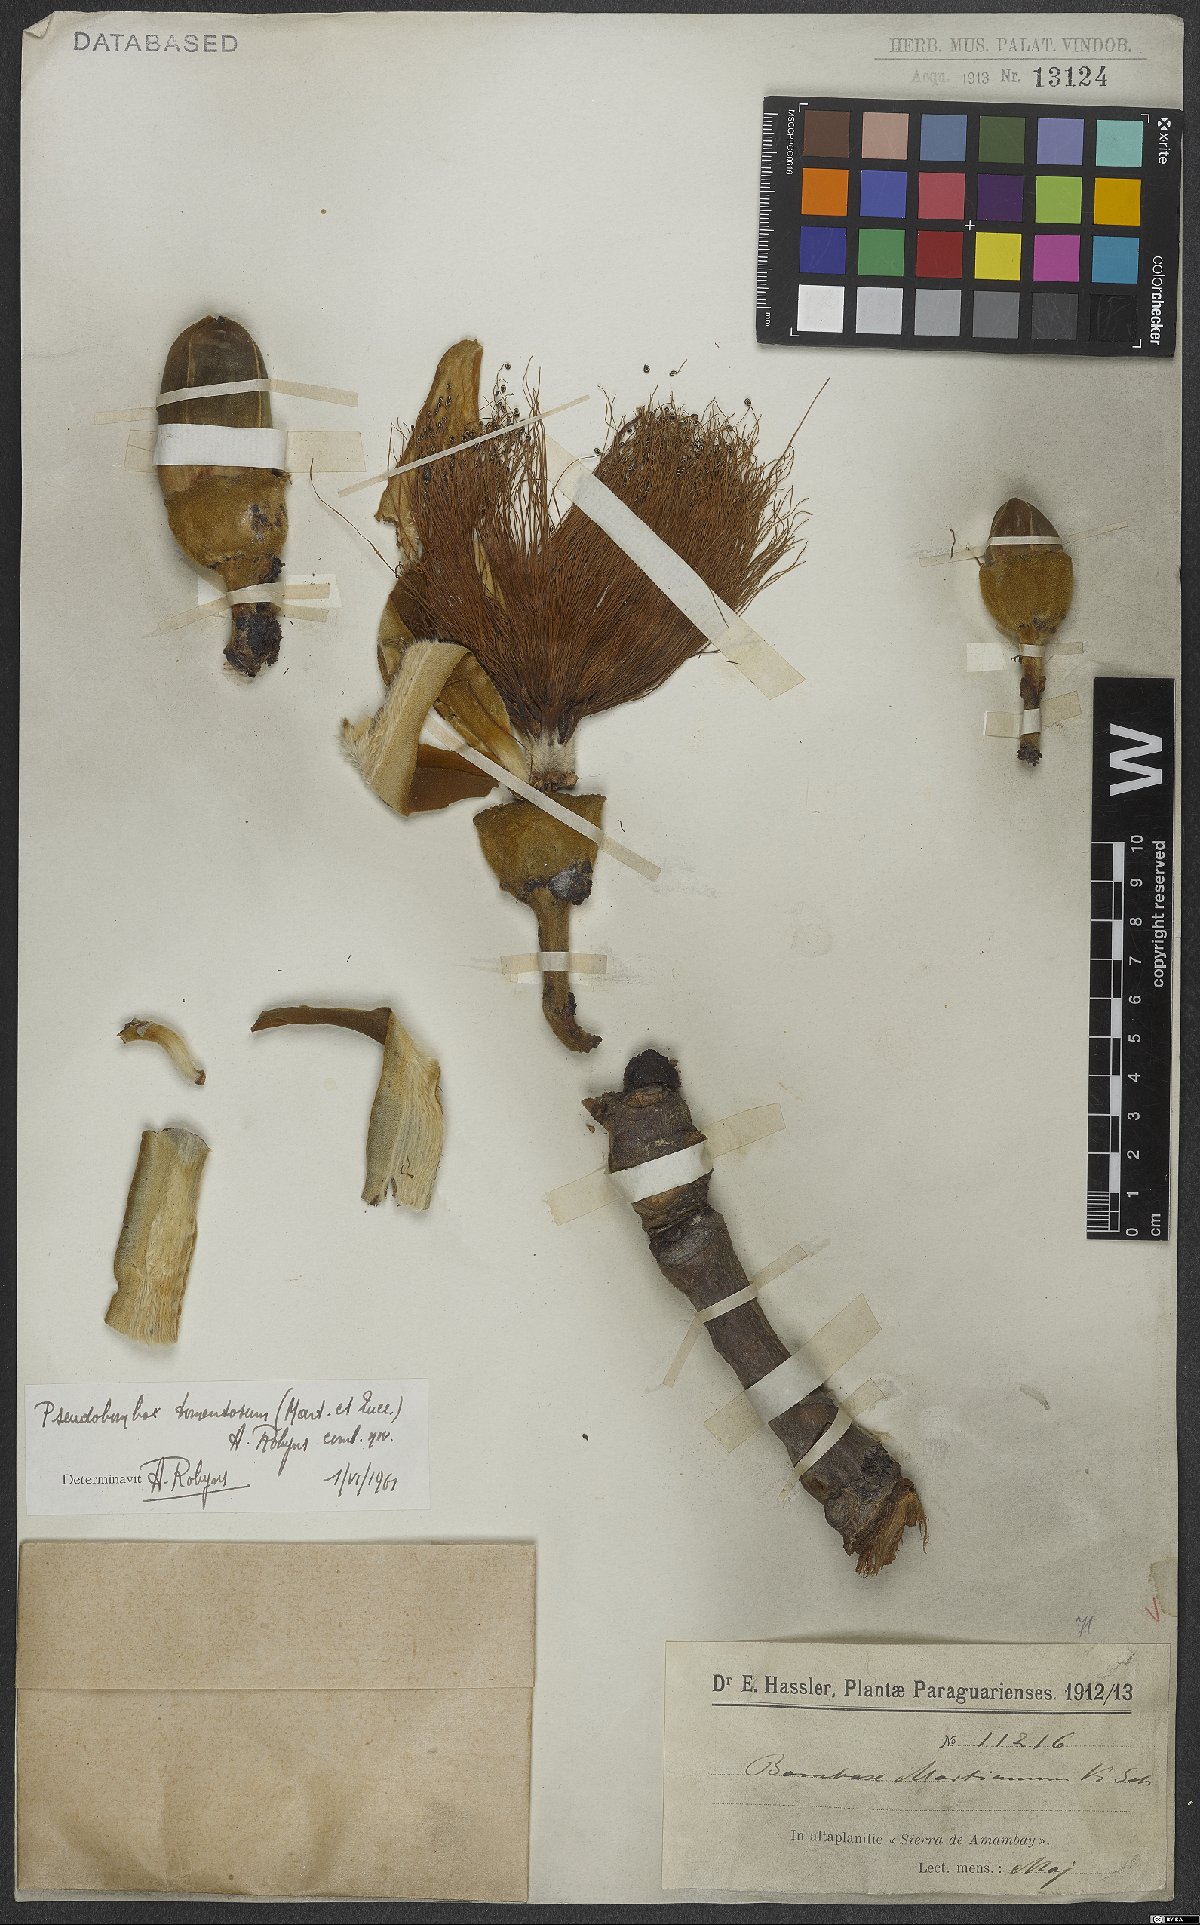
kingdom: Plantae
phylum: Tracheophyta
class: Magnoliopsida
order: Malvales
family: Malvaceae
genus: Pseudobombax
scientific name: Pseudobombax tomentosum
